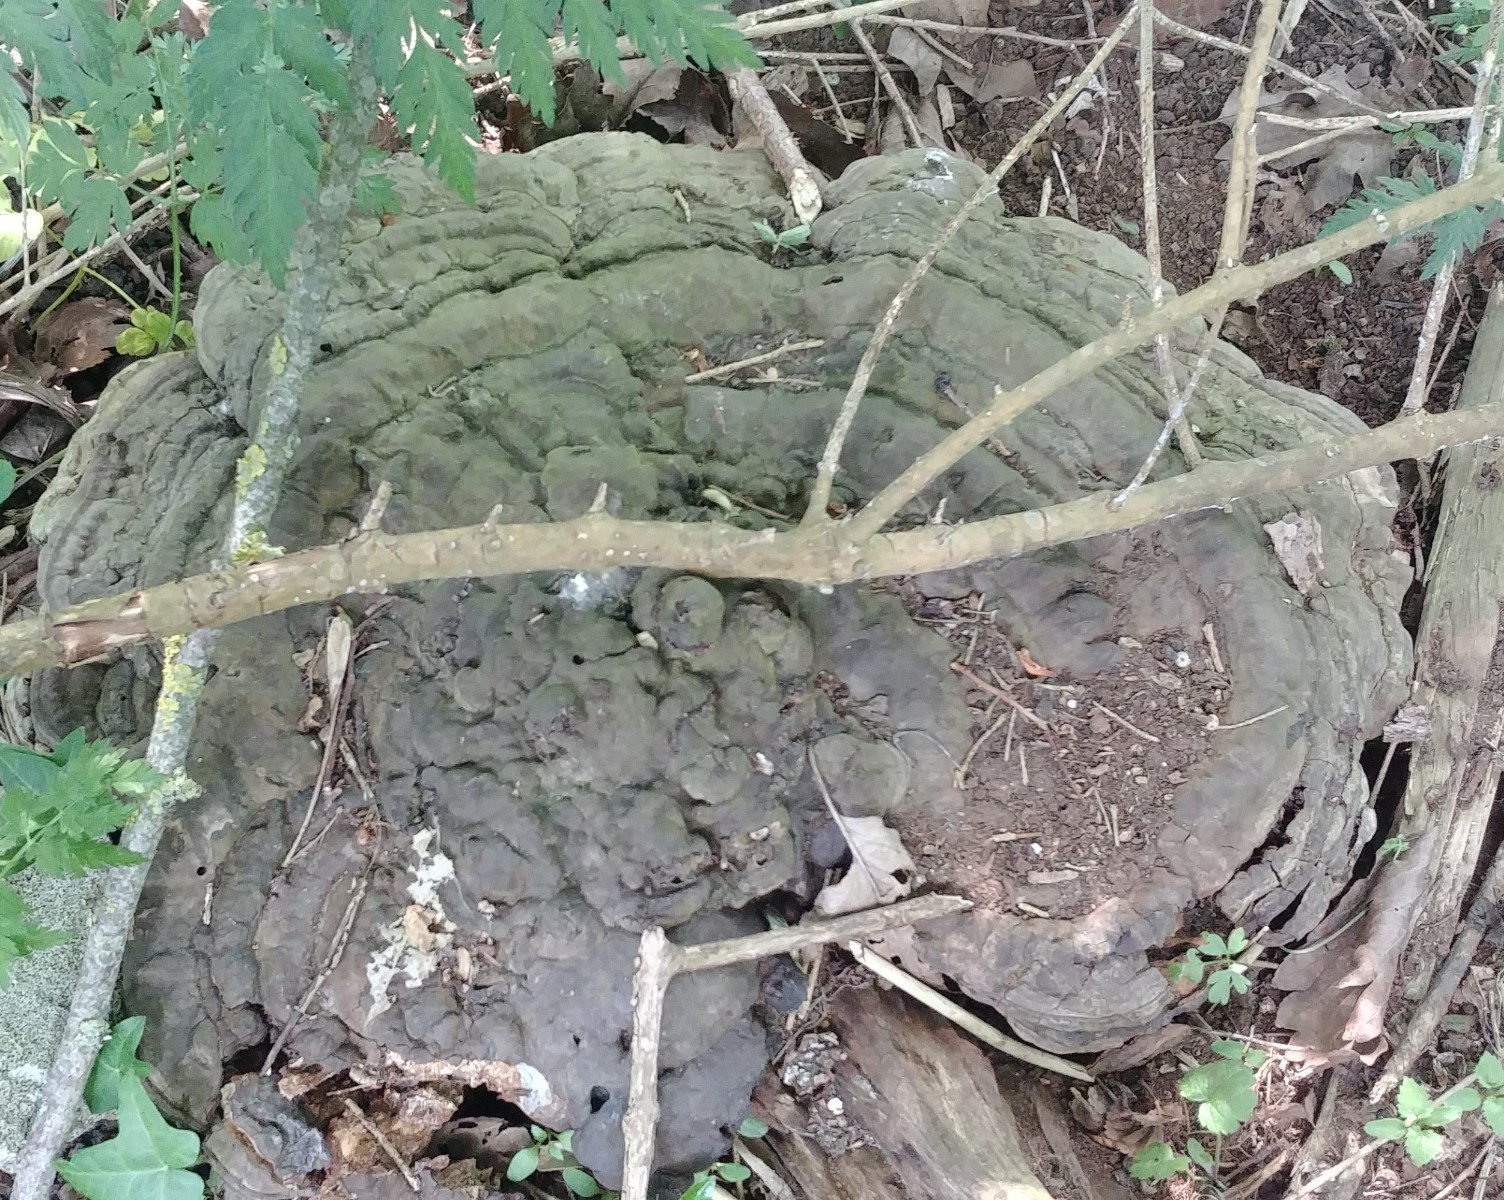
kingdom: Fungi
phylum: Basidiomycota
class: Agaricomycetes
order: Polyporales
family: Polyporaceae
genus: Ganoderma
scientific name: Ganoderma applanatum
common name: flad lakporesvamp
